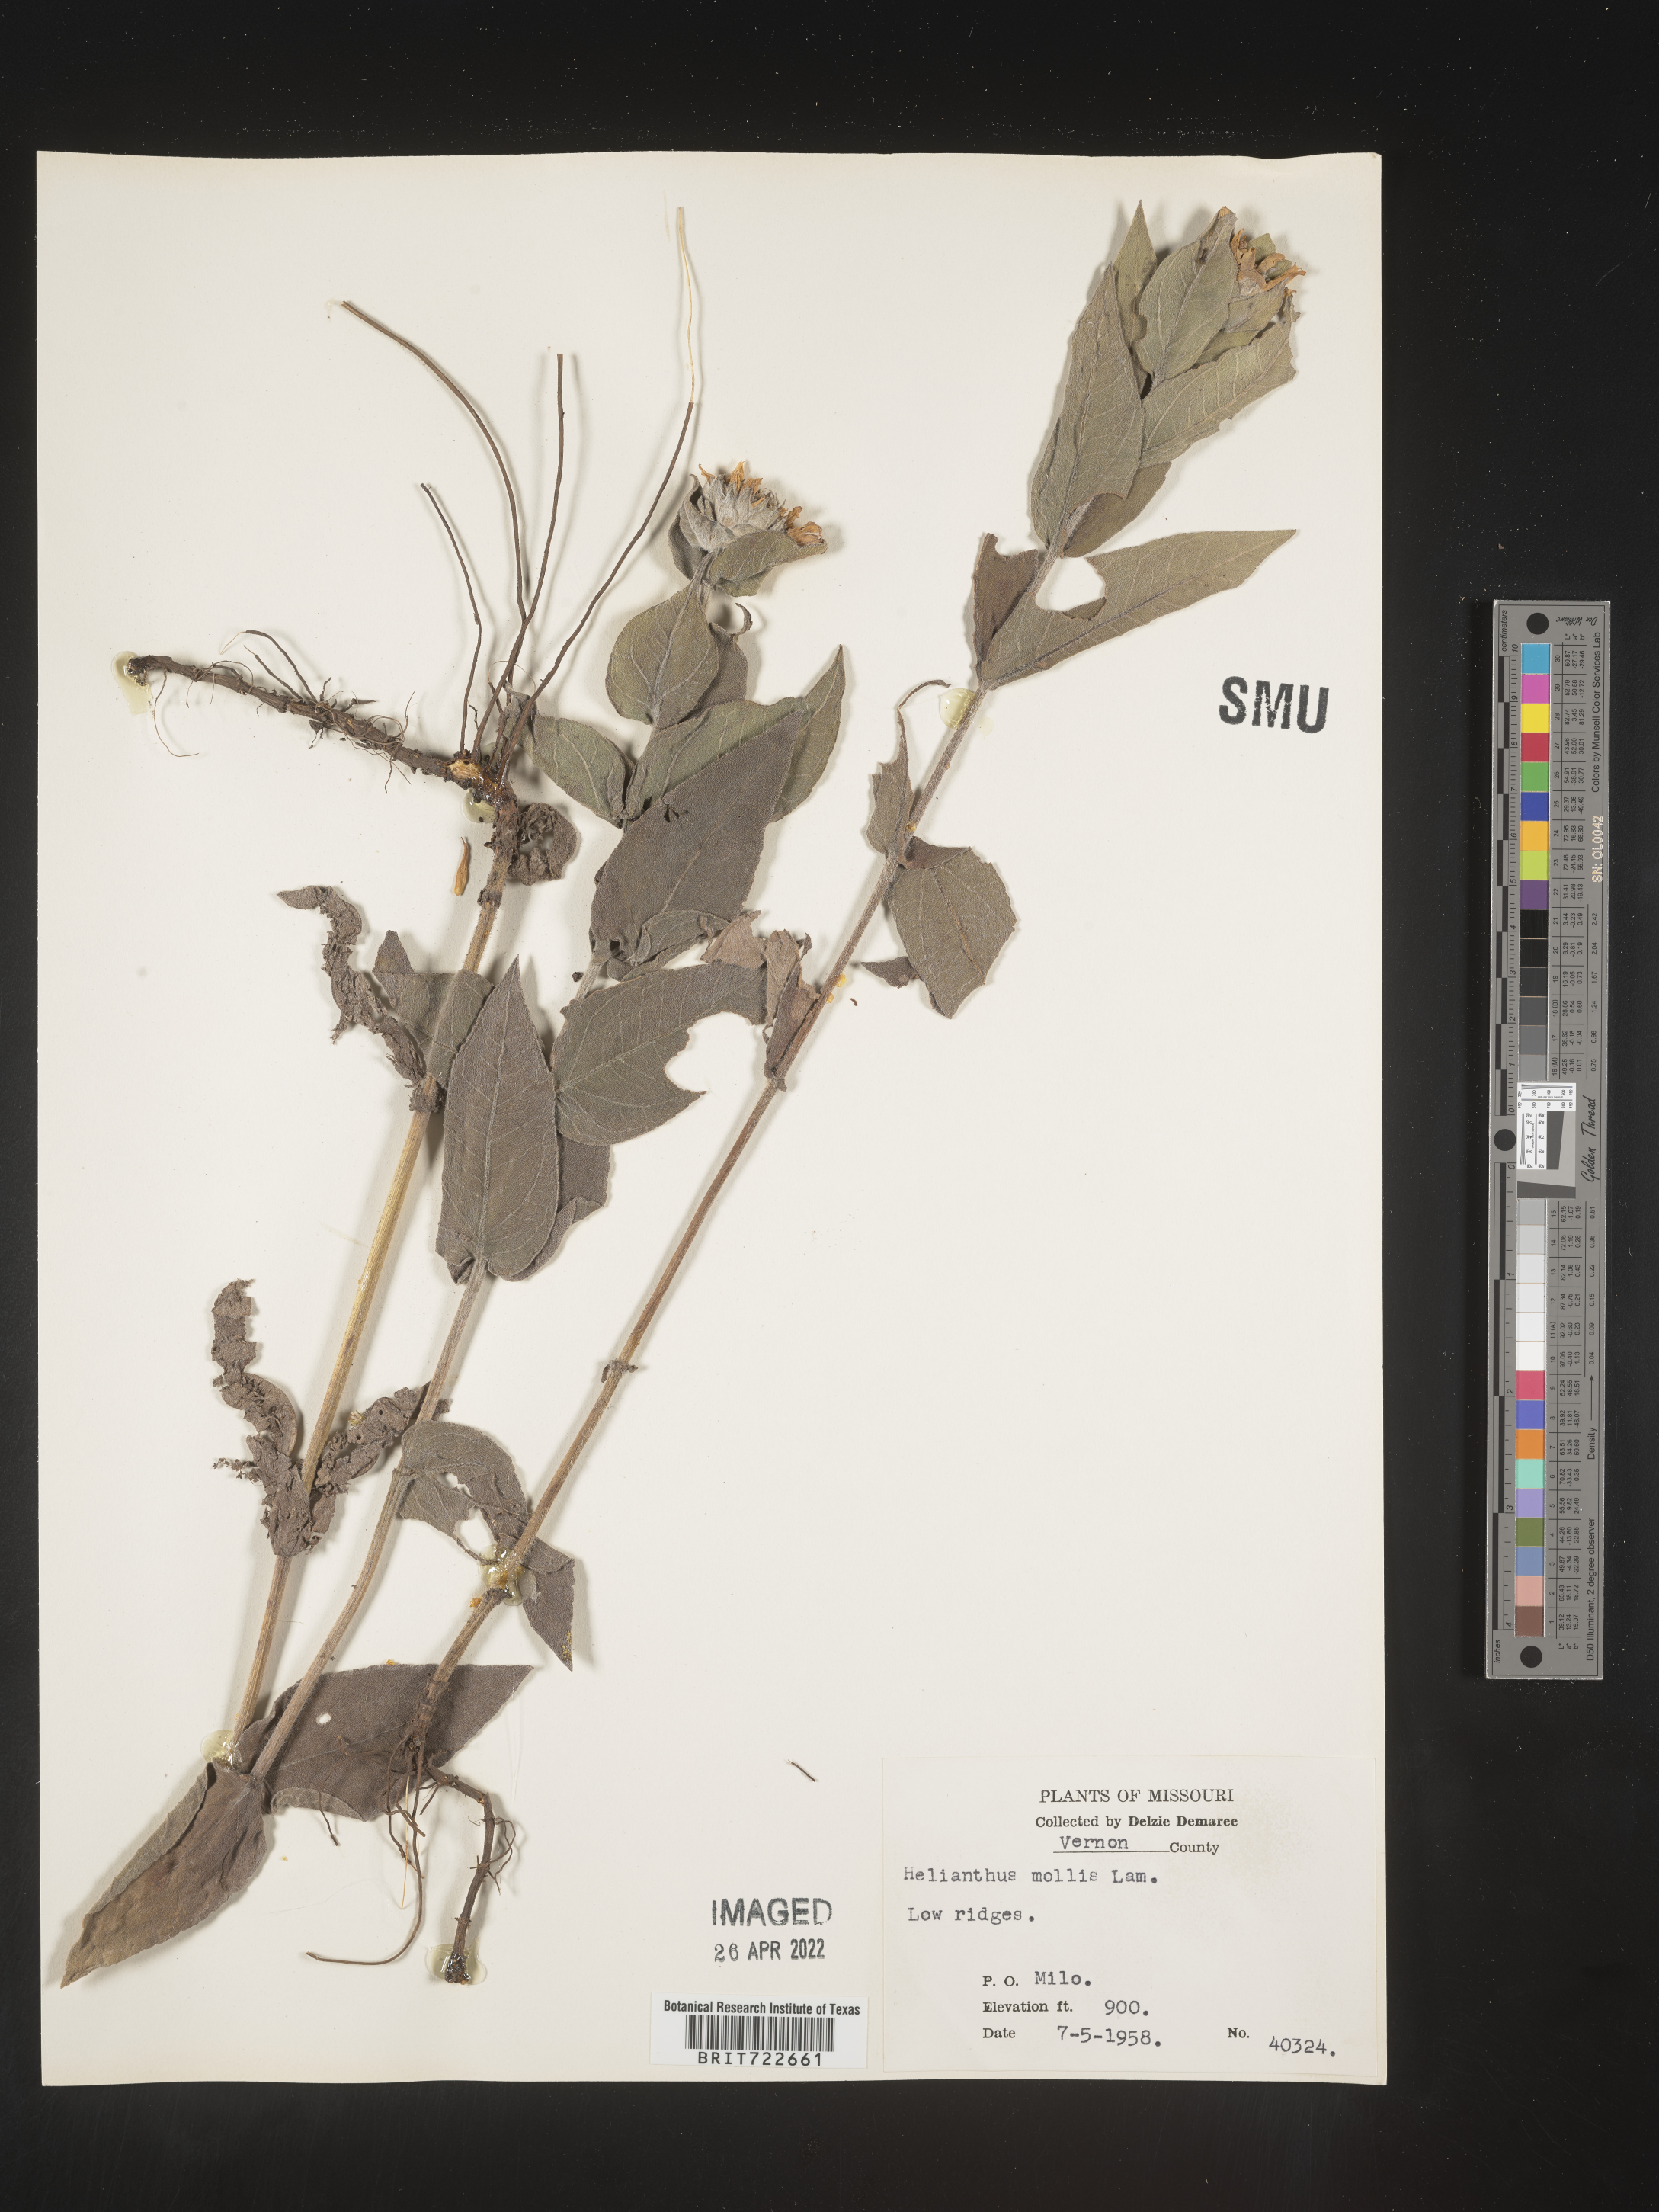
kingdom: Plantae
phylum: Tracheophyta
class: Magnoliopsida
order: Asterales
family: Asteraceae
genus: Helianthus
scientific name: Helianthus mollis
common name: Ashy sunflower
